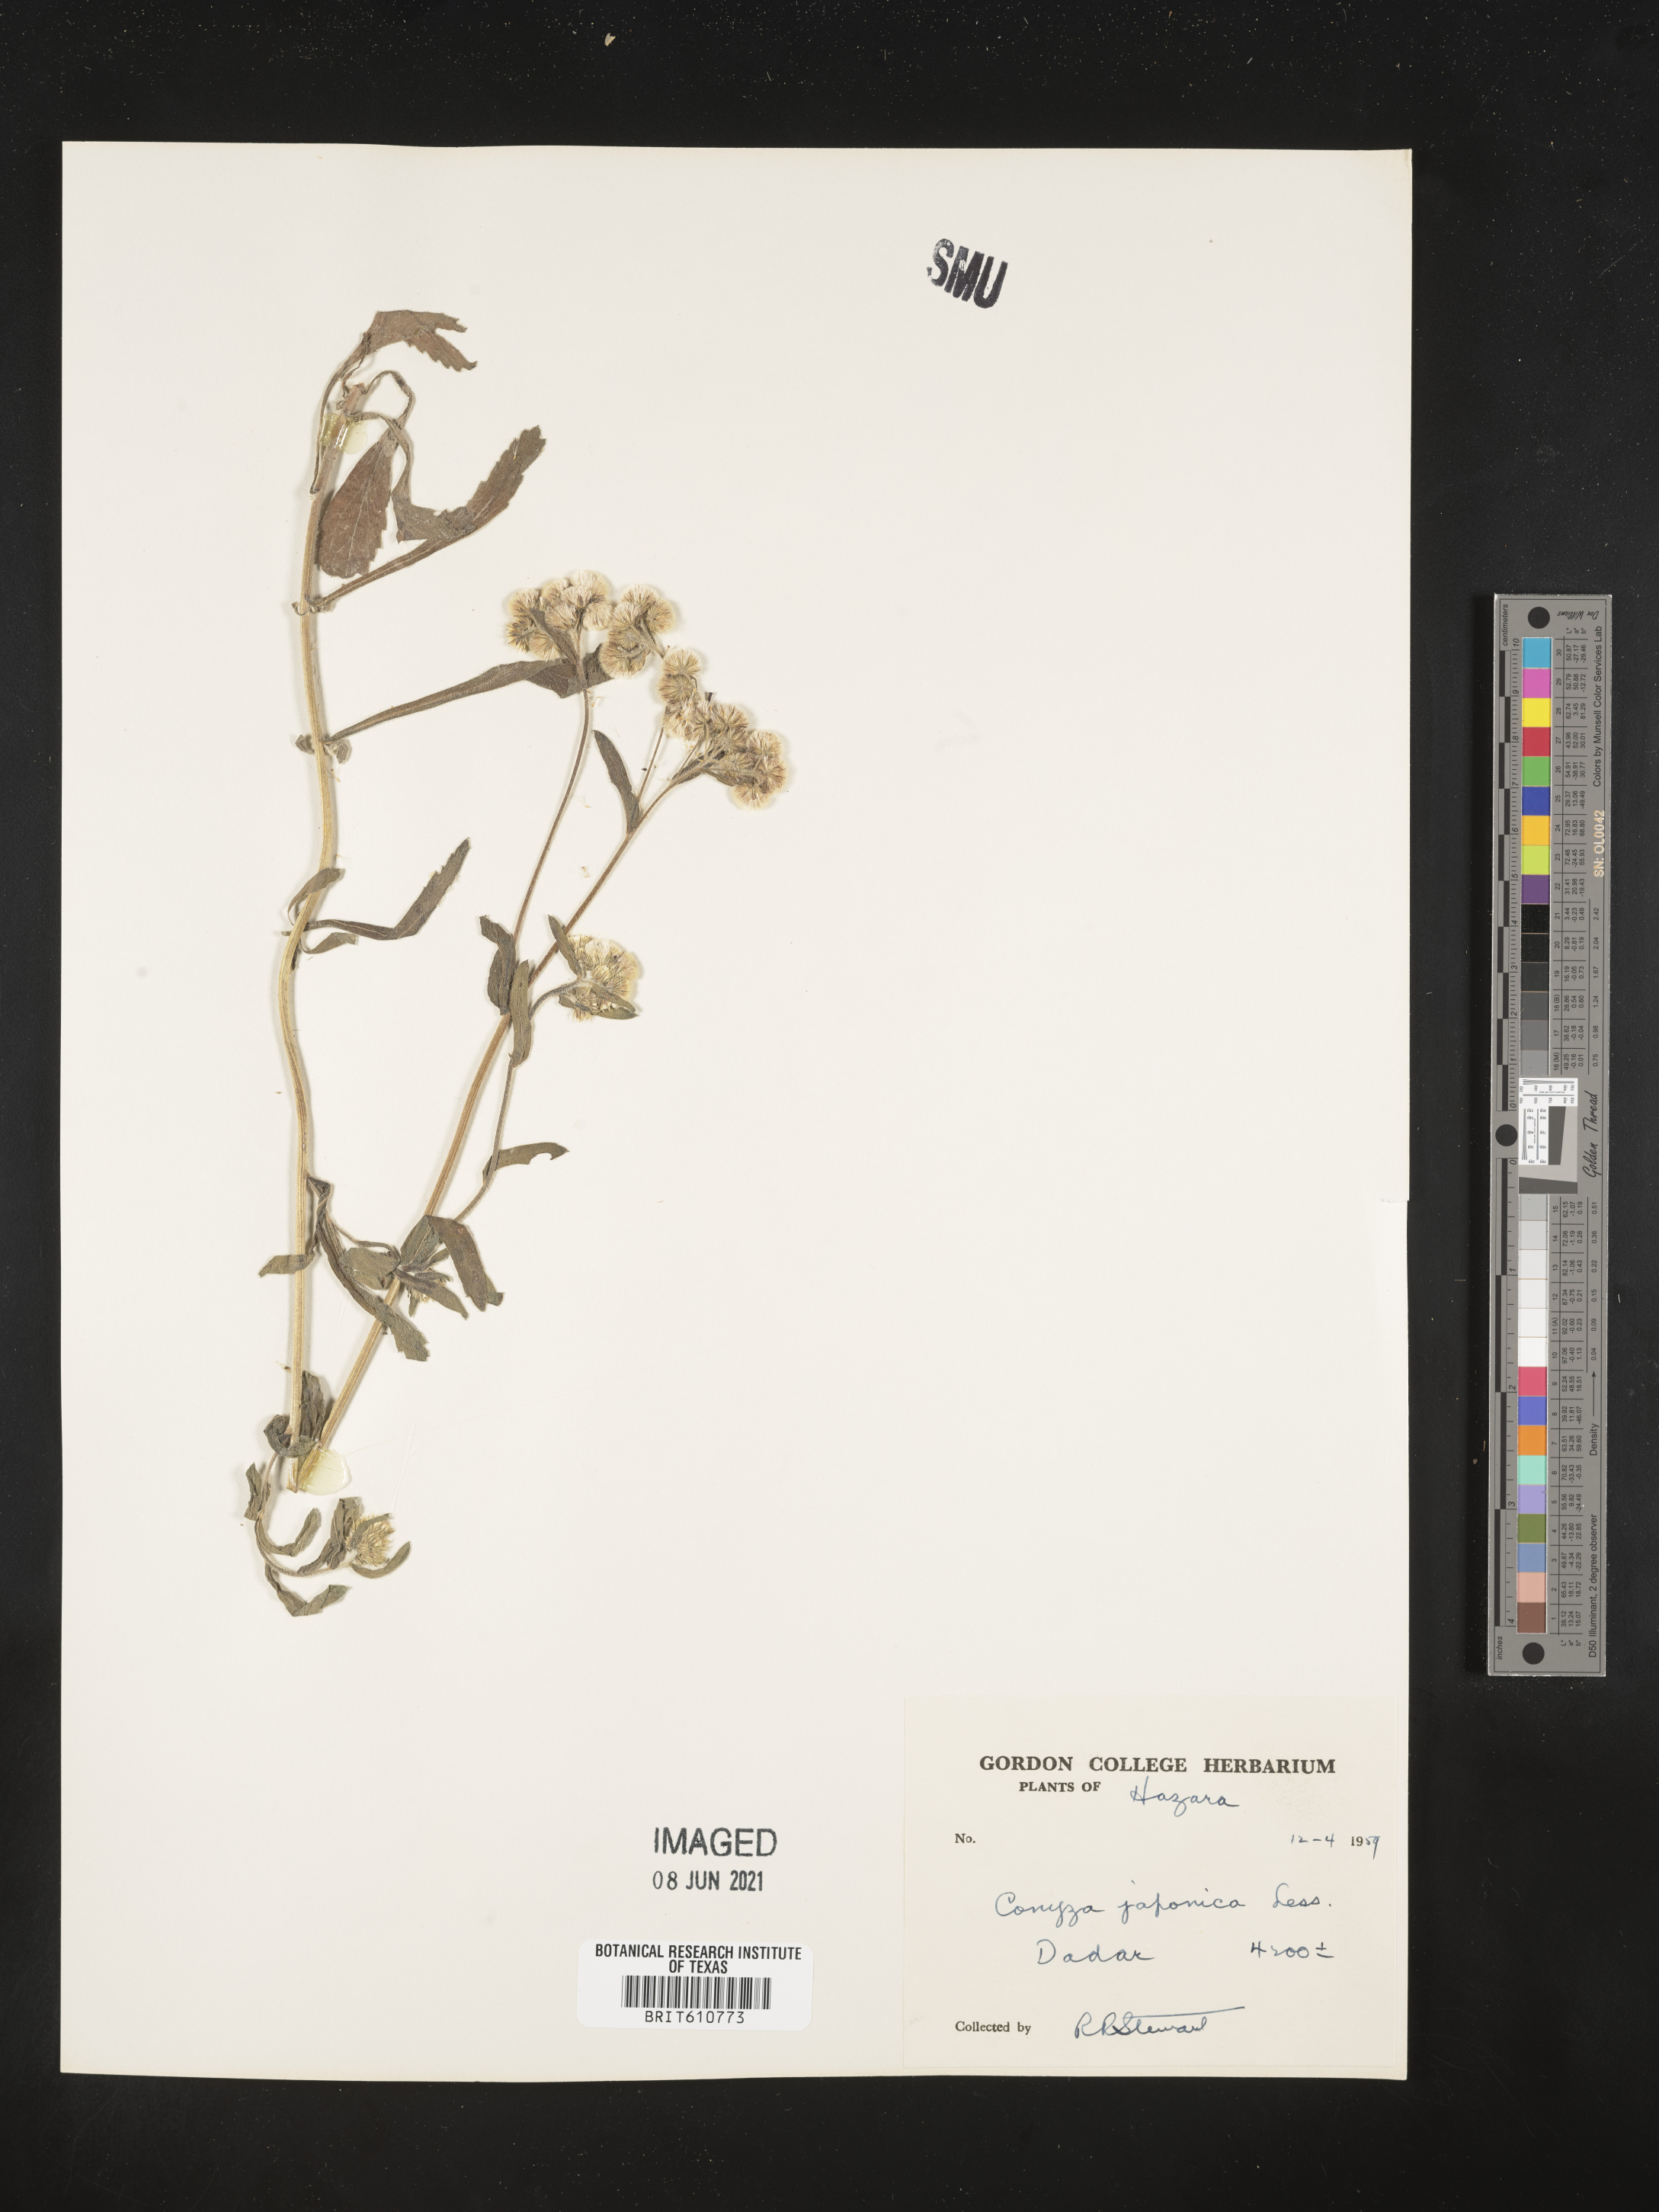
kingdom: Plantae
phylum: Tracheophyta
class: Magnoliopsida
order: Asterales
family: Asteraceae
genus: Eschenbachia
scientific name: Eschenbachia japonica
